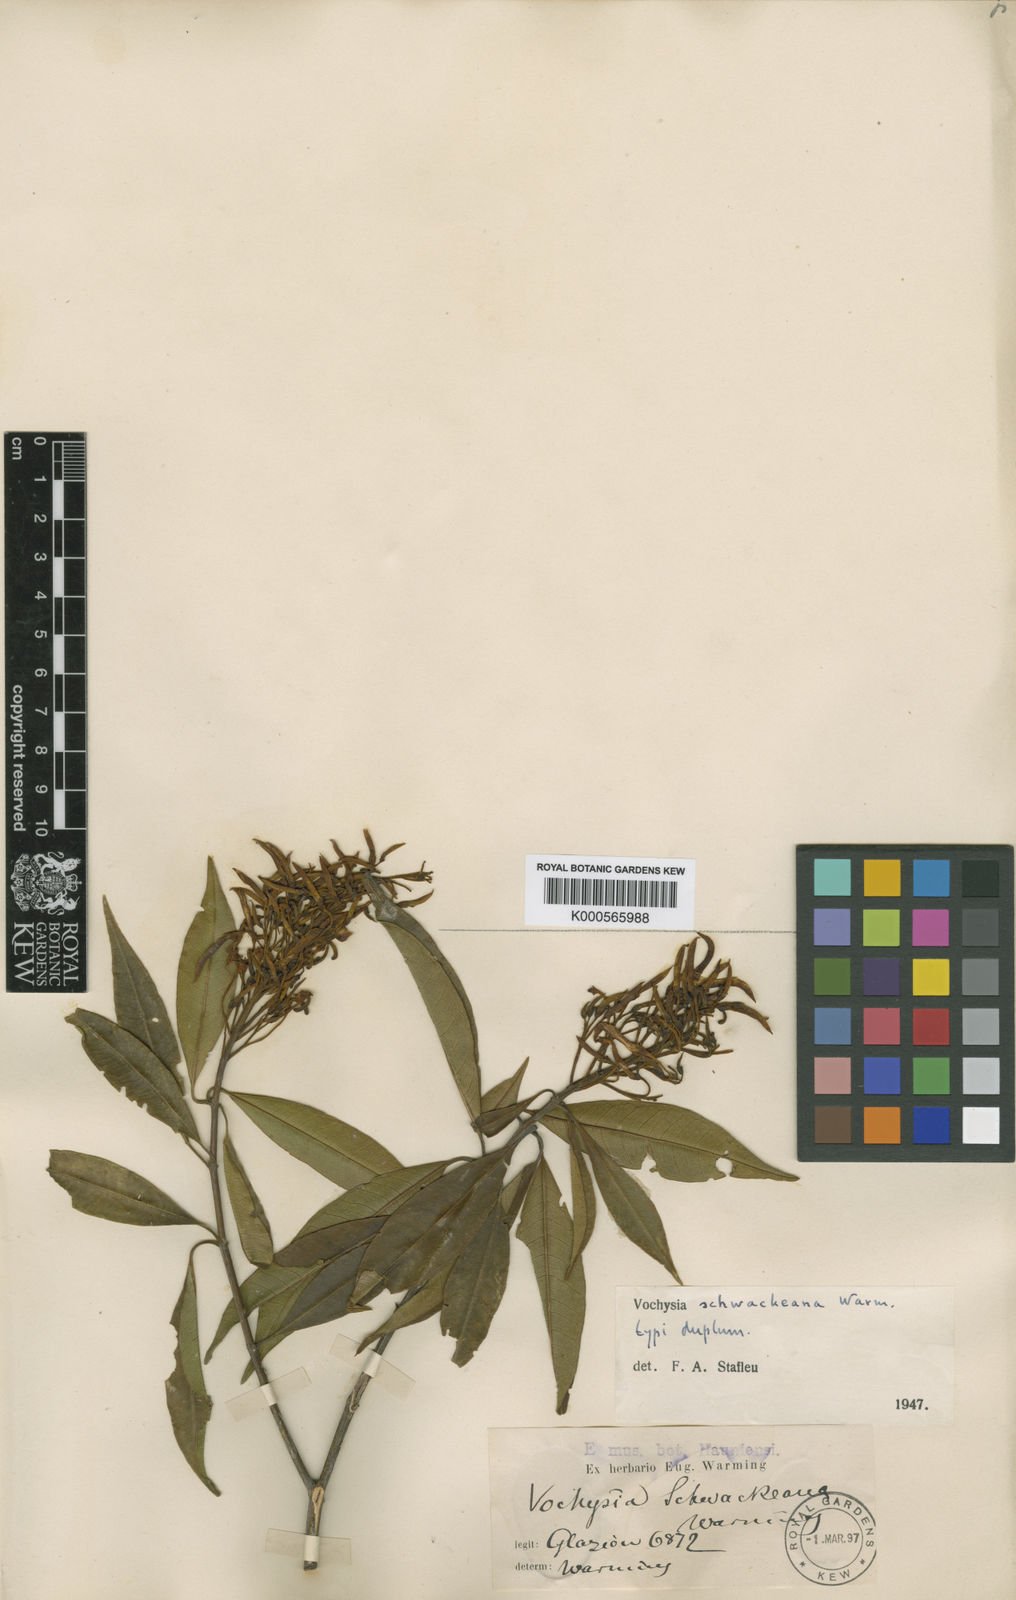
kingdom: Plantae
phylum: Tracheophyta
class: Magnoliopsida
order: Myrtales
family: Vochysiaceae
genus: Vochysia
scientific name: Vochysia schwackeana
